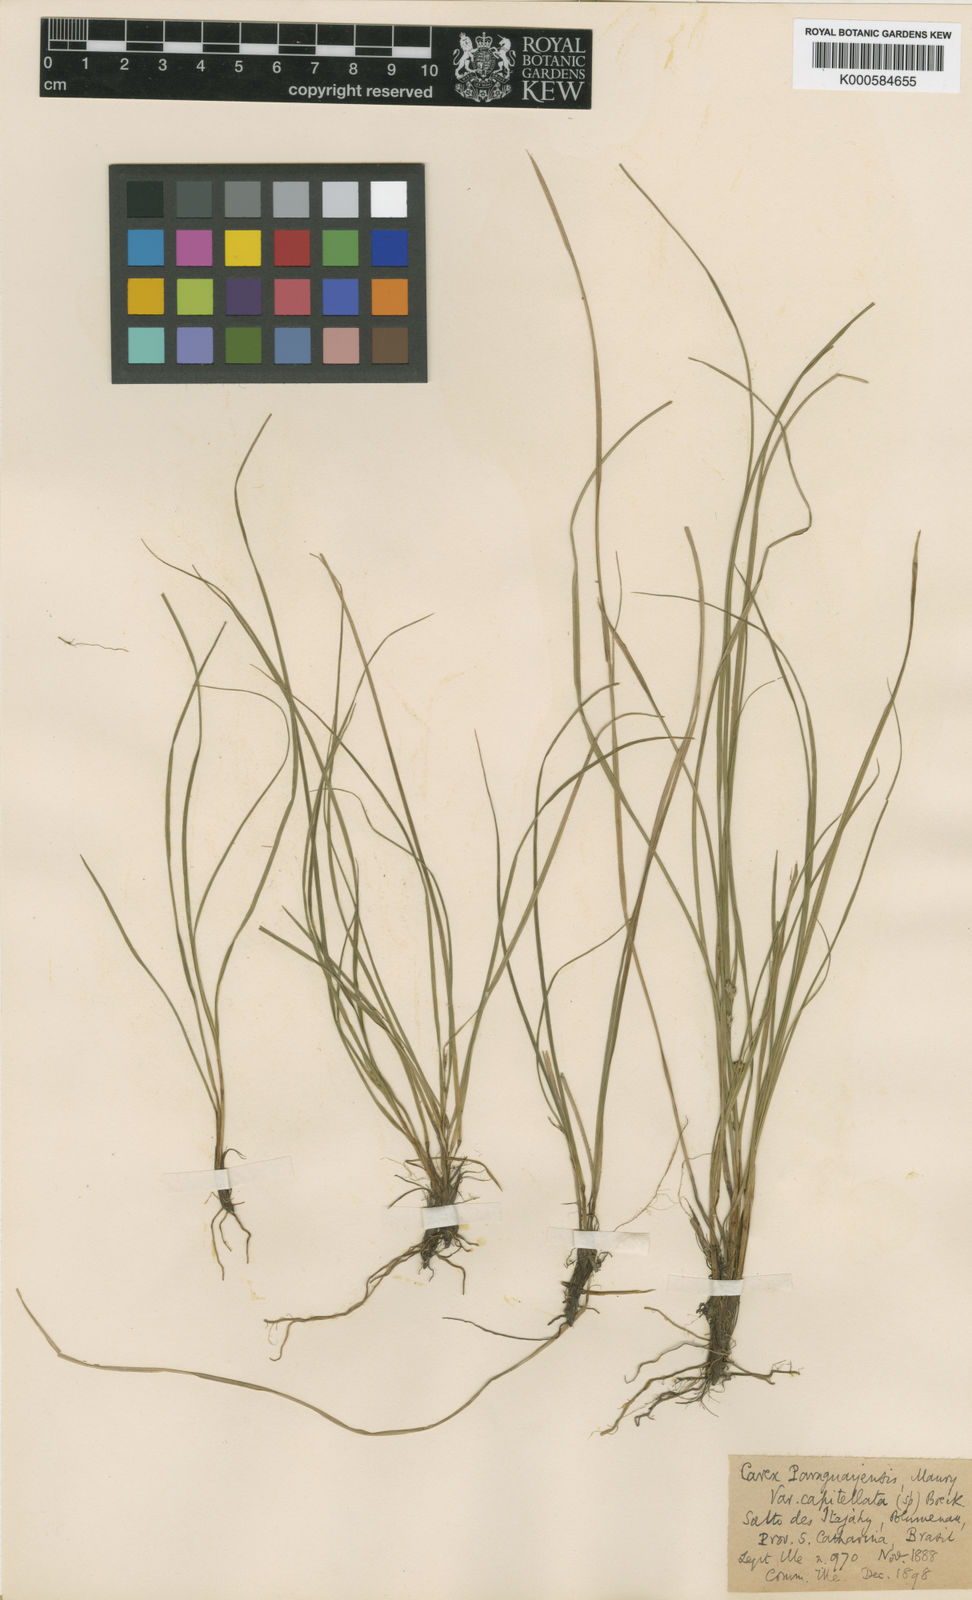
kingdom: Plantae
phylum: Tracheophyta
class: Liliopsida
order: Poales
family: Cyperaceae
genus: Carex
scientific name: Carex phalaroides
